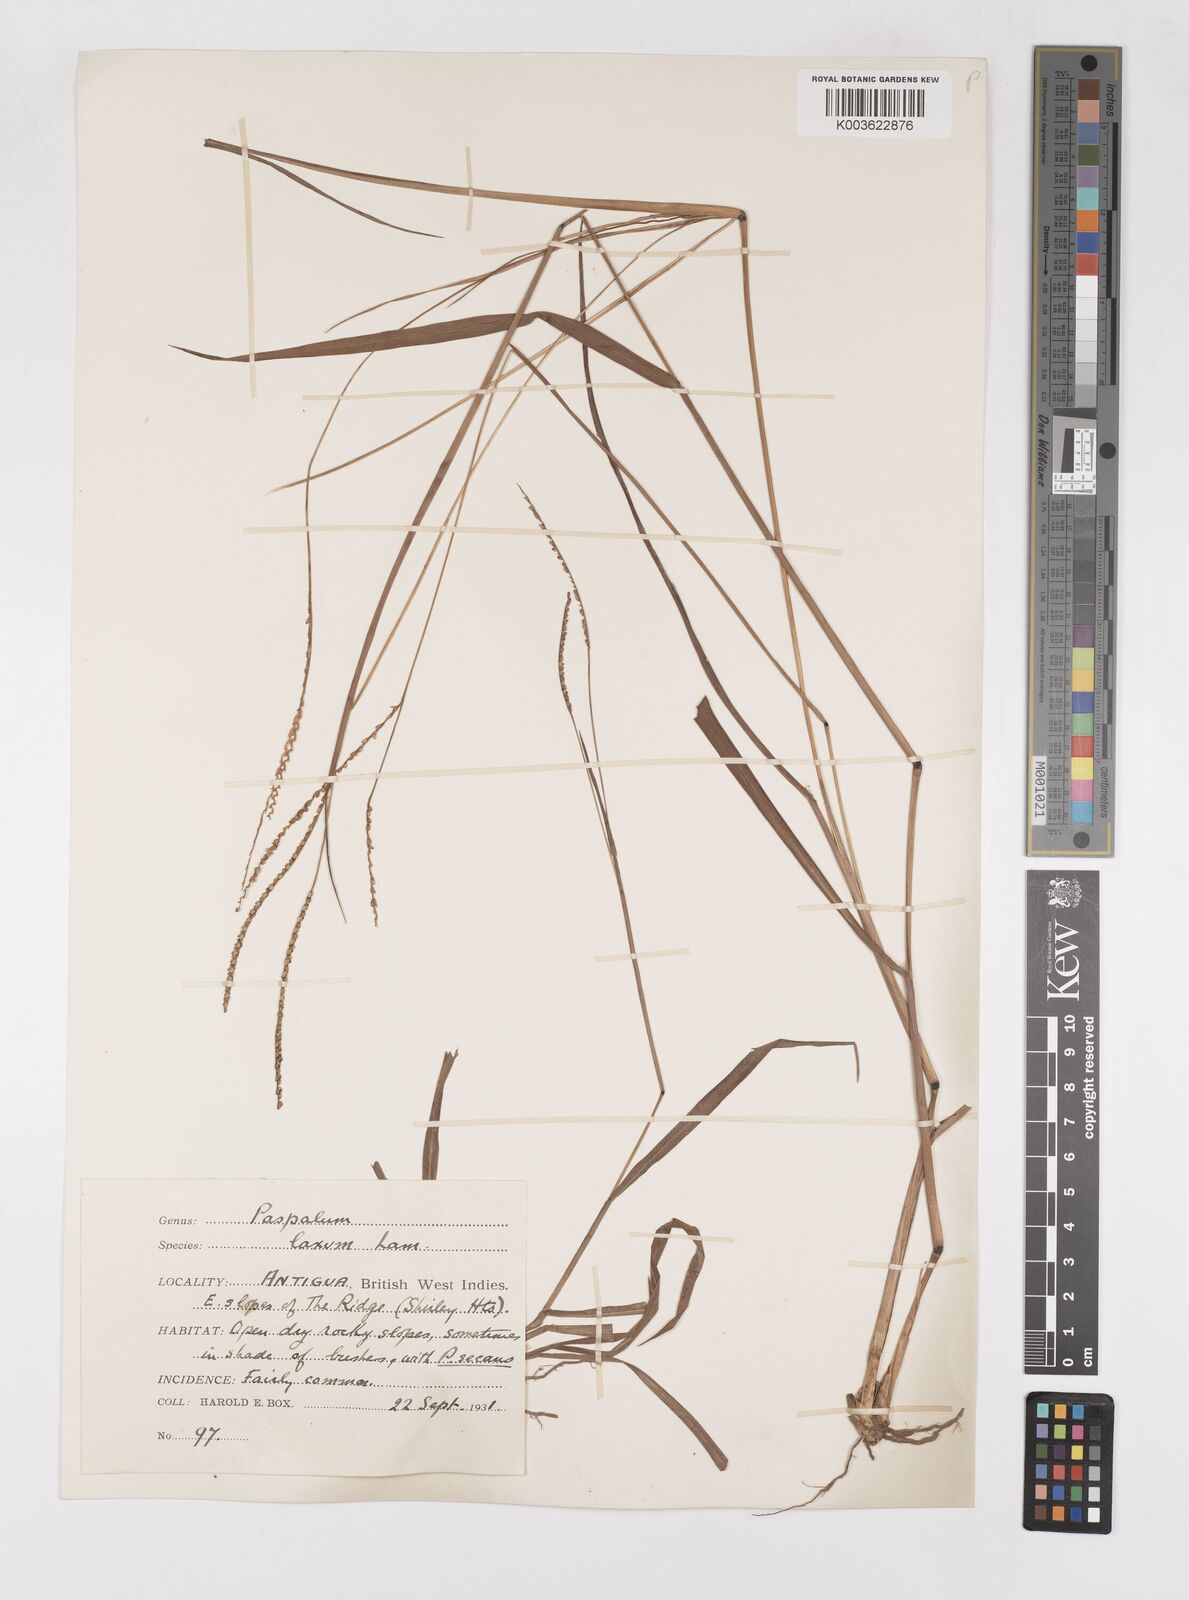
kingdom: Plantae
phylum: Tracheophyta
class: Liliopsida
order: Poales
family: Poaceae
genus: Paspalum
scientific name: Paspalum laxum
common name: Coconut paspalum
